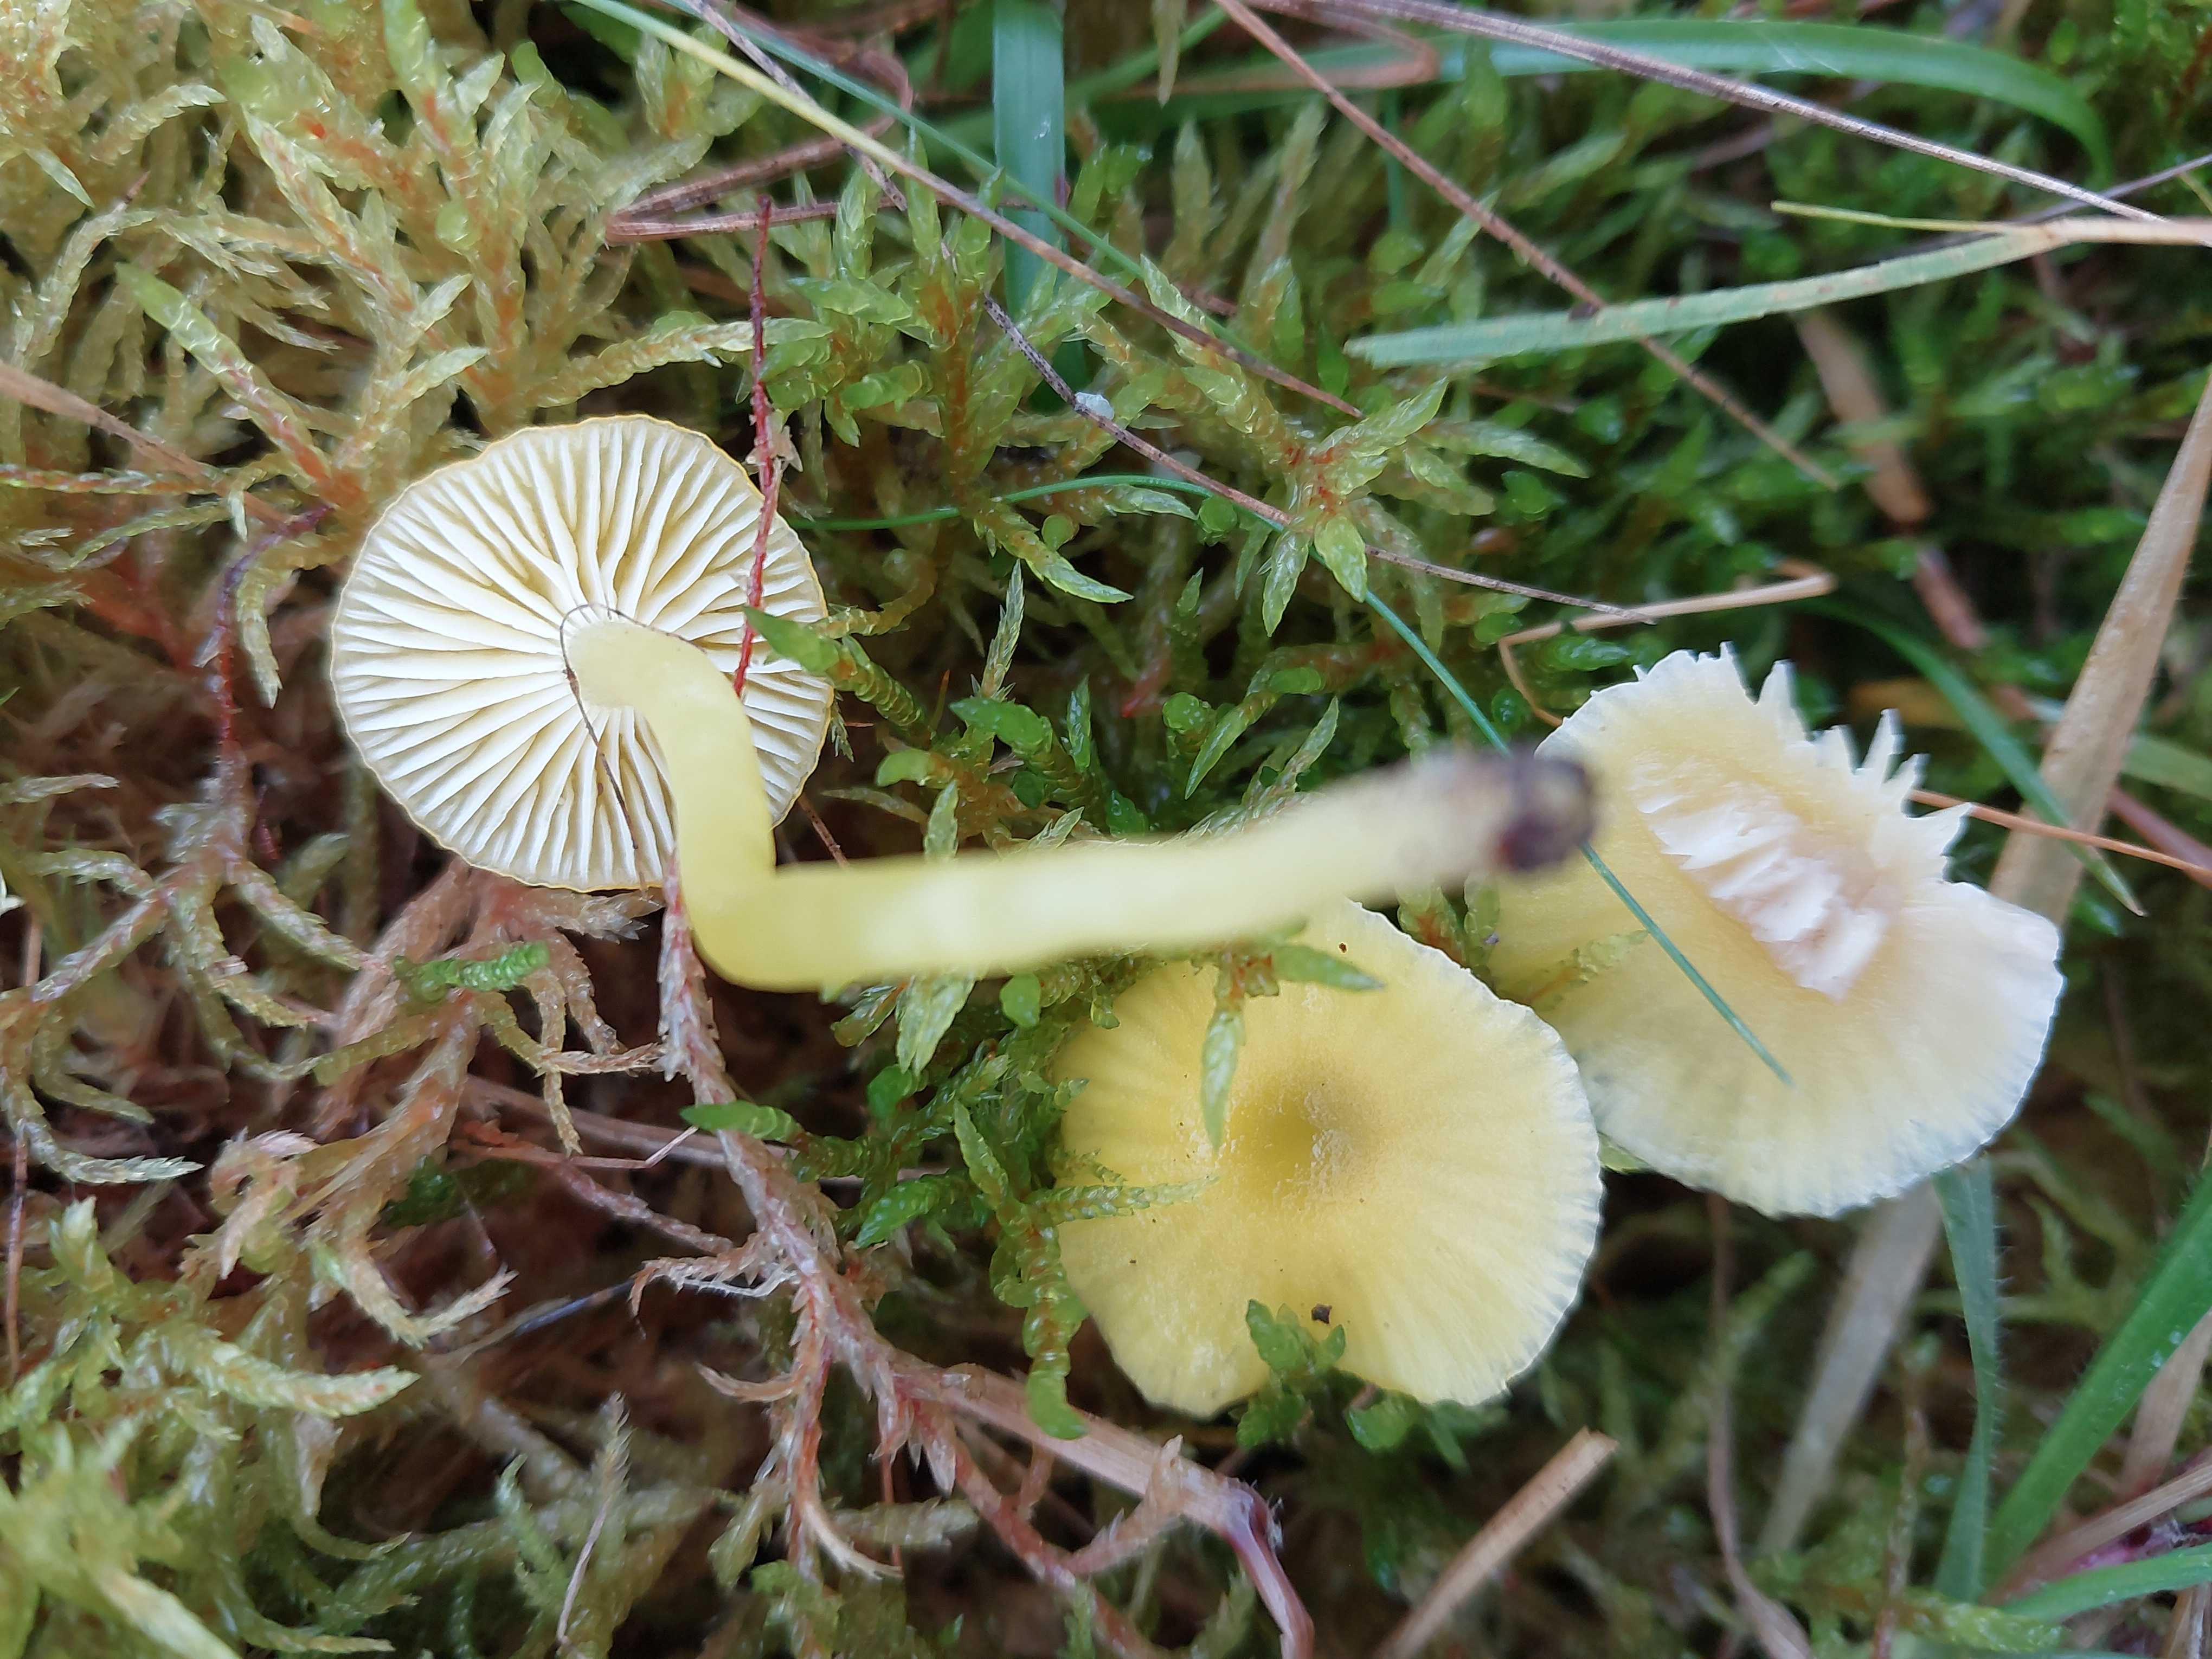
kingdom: Fungi
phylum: Basidiomycota
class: Agaricomycetes
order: Agaricales
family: Hygrophoraceae
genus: Hygrocybe
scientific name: Hygrocybe ceracea
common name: voksgul vokshat
